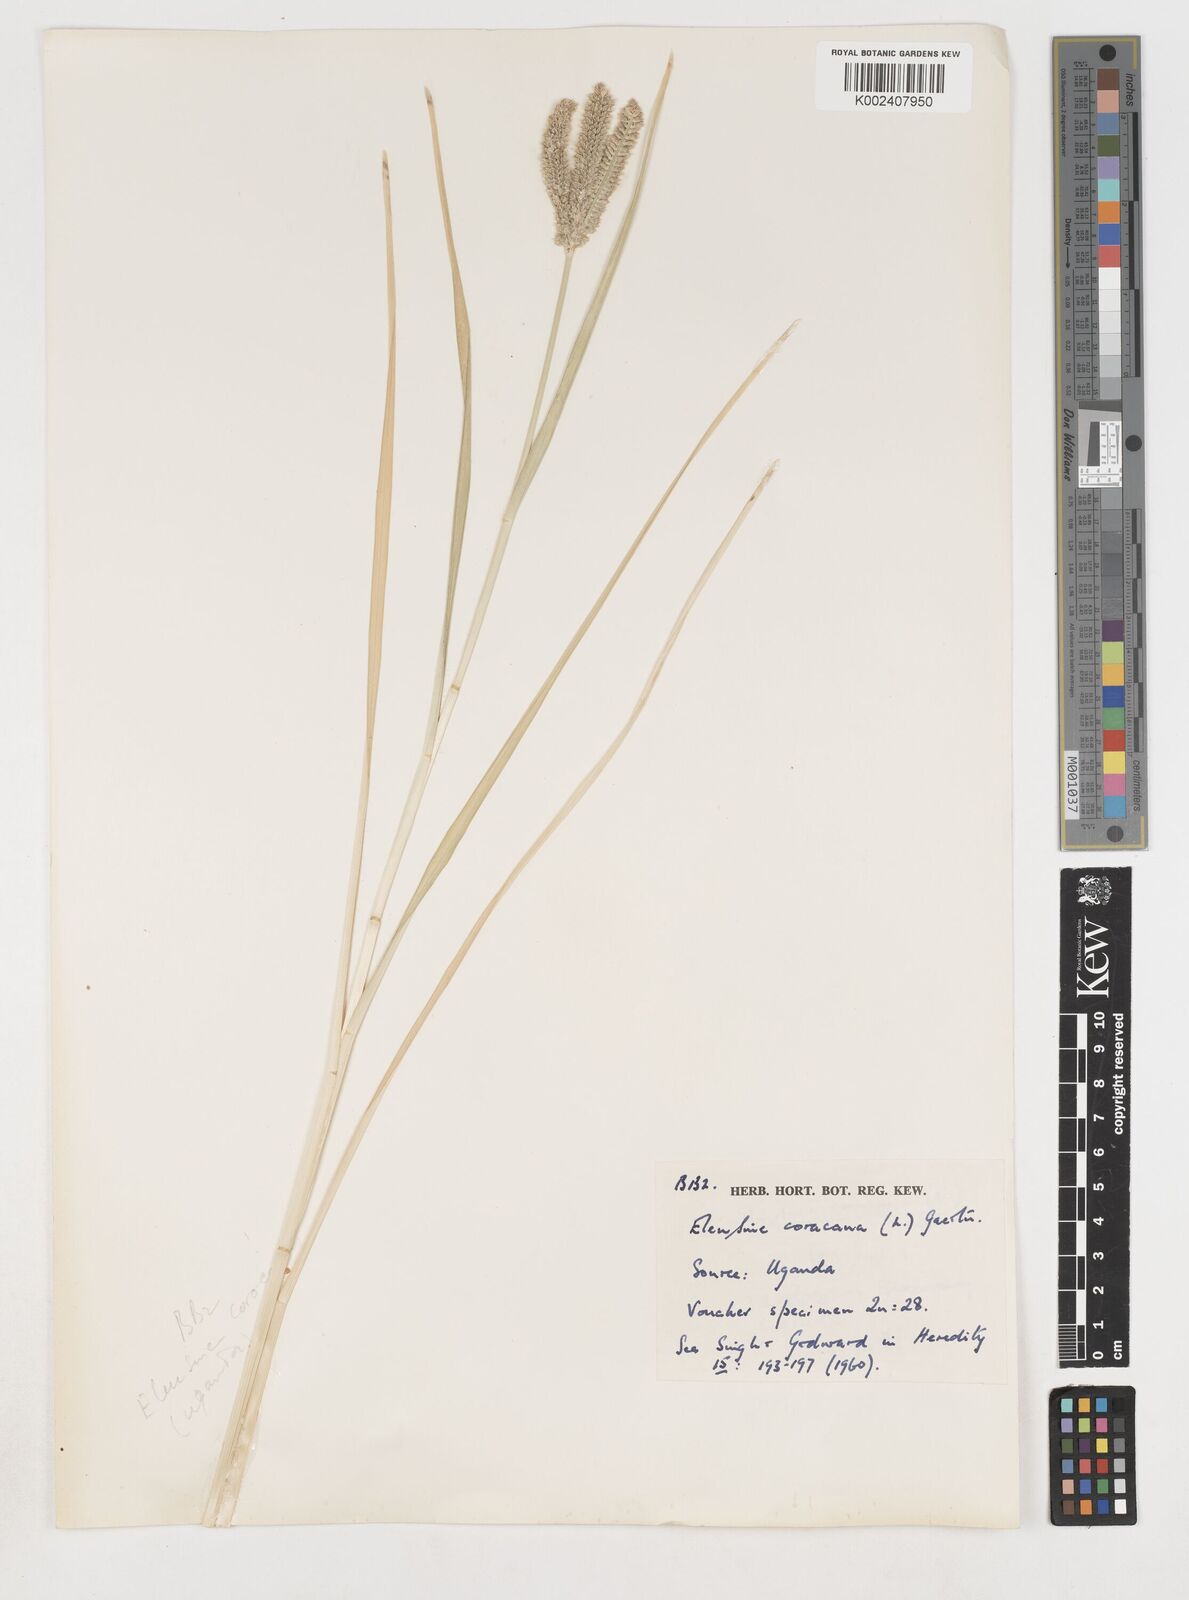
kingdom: Plantae
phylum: Tracheophyta
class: Liliopsida
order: Poales
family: Poaceae
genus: Eleusine
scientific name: Eleusine coracana
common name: Finger millet
